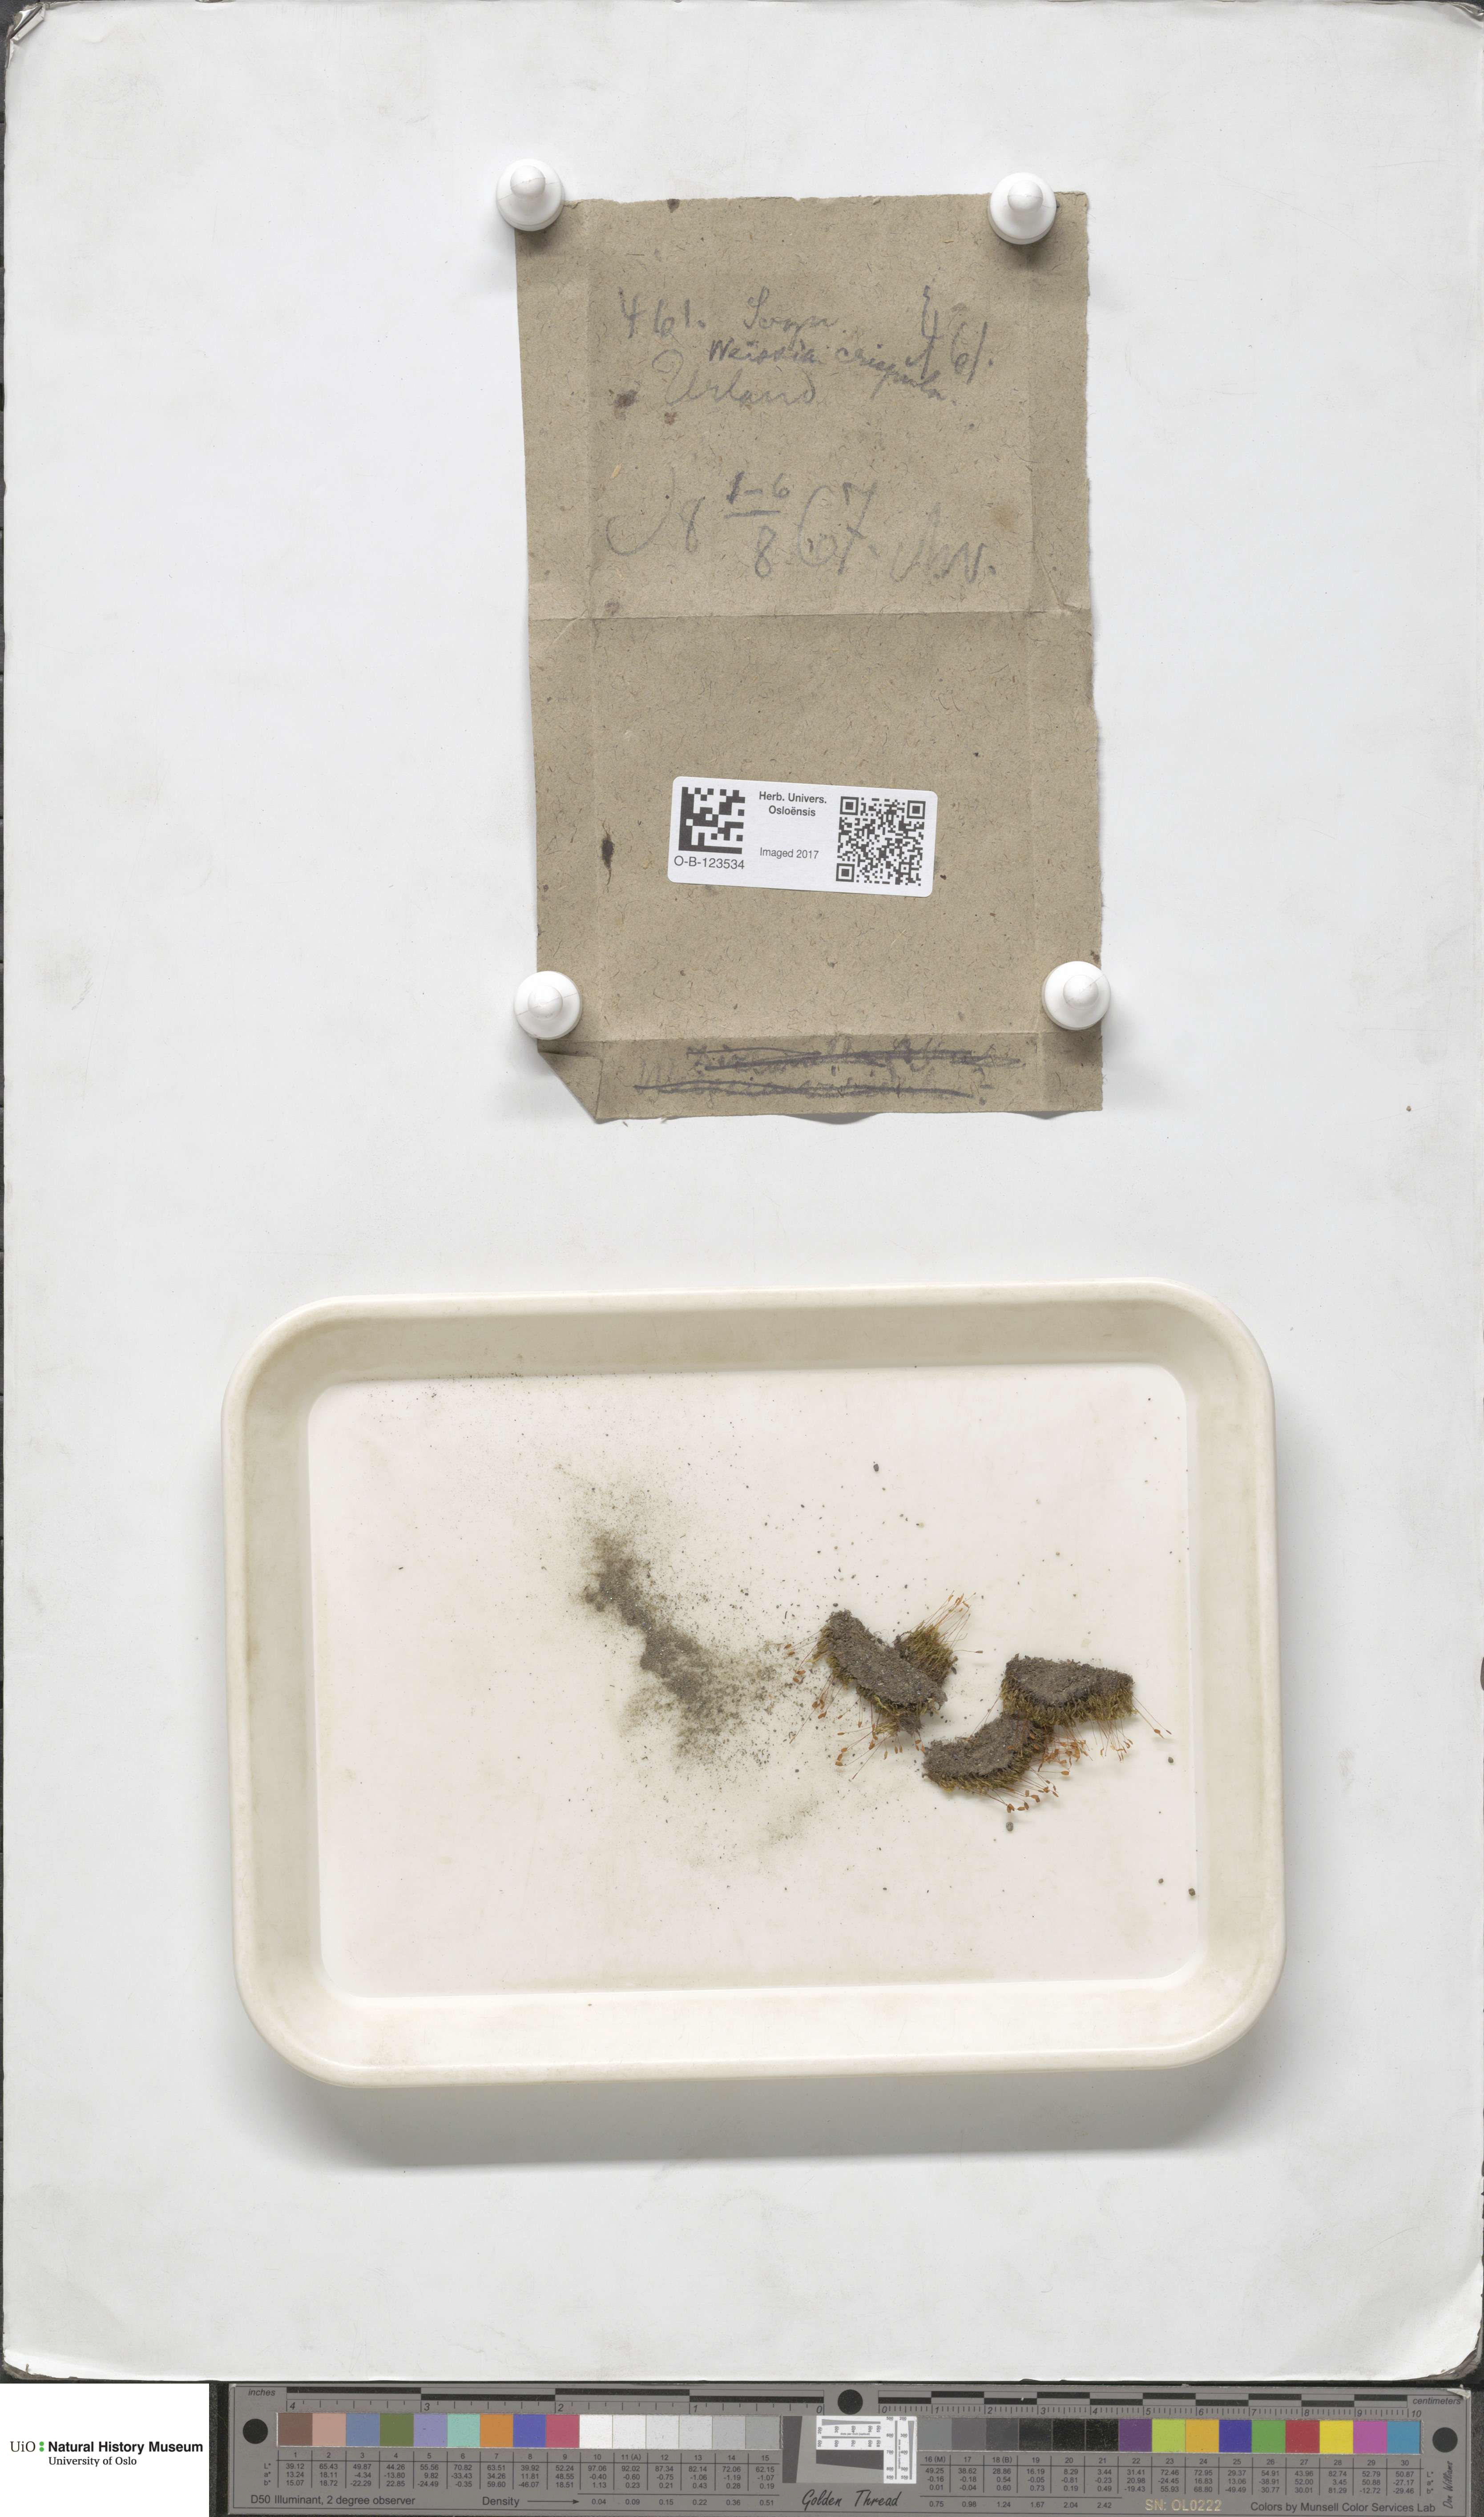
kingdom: Plantae
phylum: Bryophyta
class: Bryopsida
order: Scouleriales
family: Hymenolomataceae
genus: Hymenoloma
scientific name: Hymenoloma crispulum
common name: Mountain pincushion
